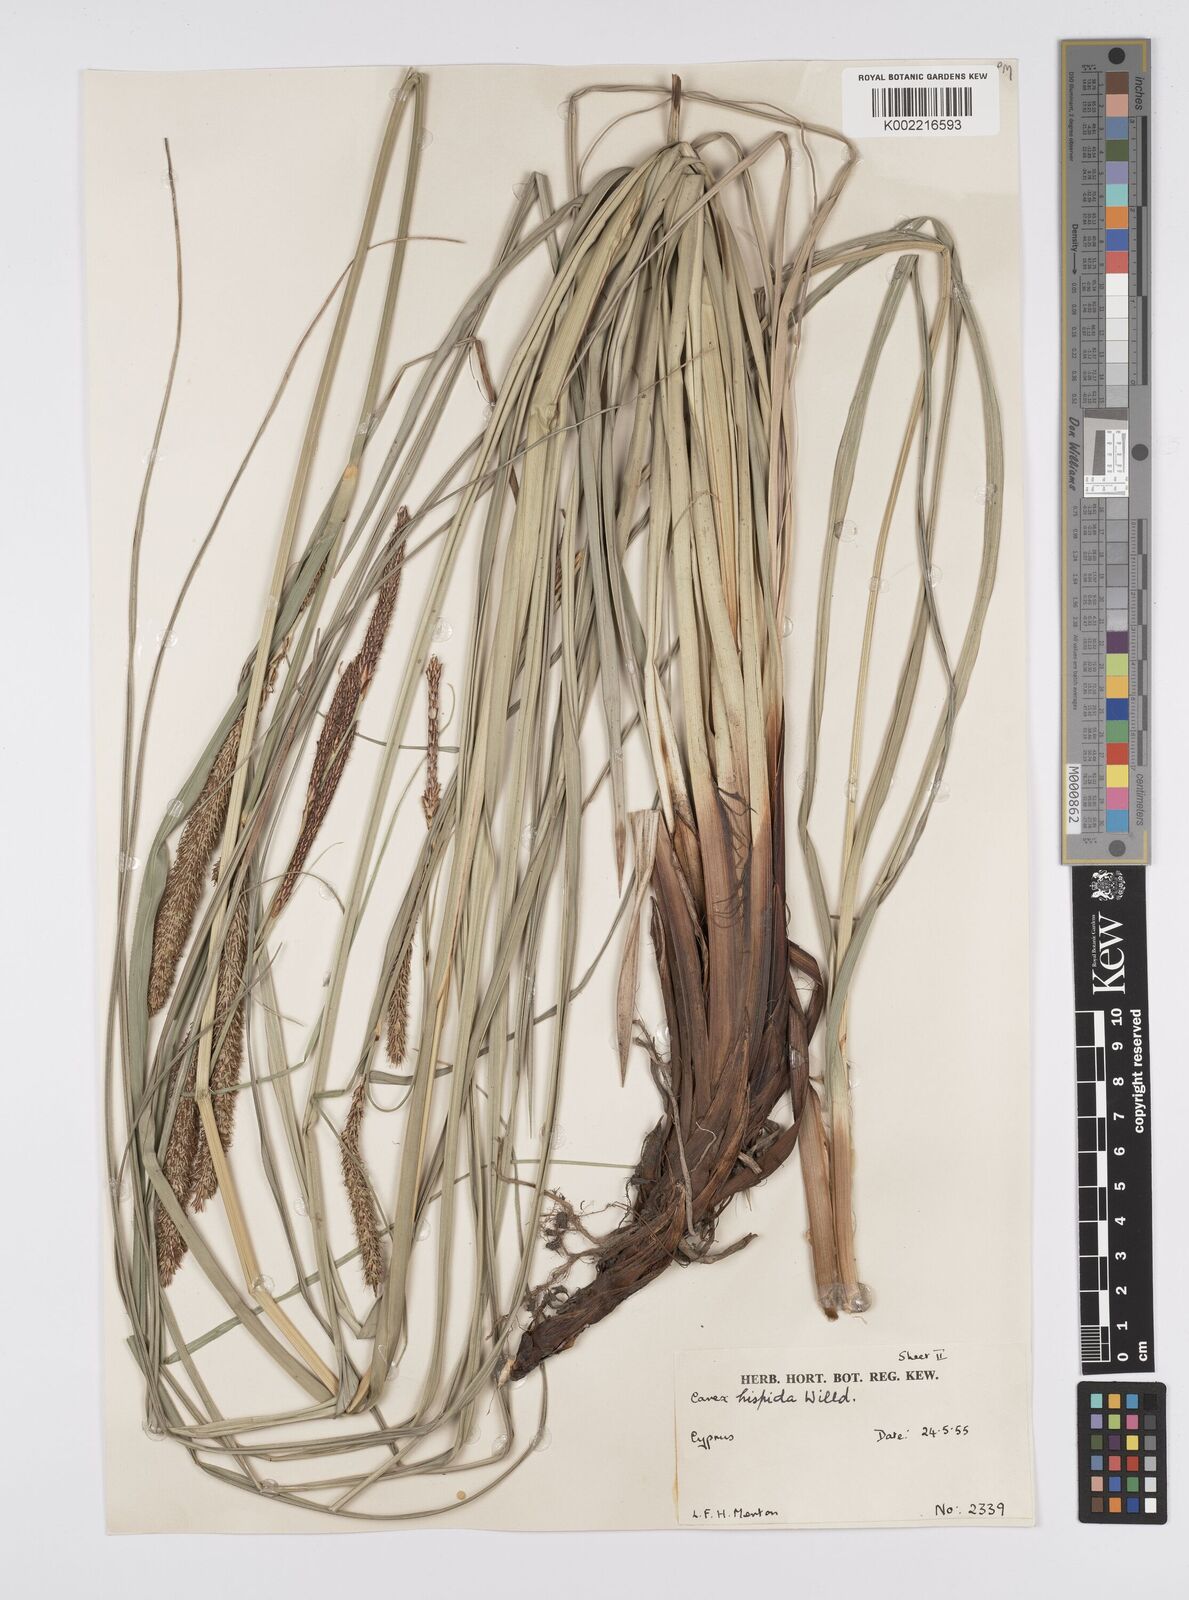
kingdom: Plantae
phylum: Tracheophyta
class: Liliopsida
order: Poales
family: Cyperaceae
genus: Carex
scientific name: Carex hispida
